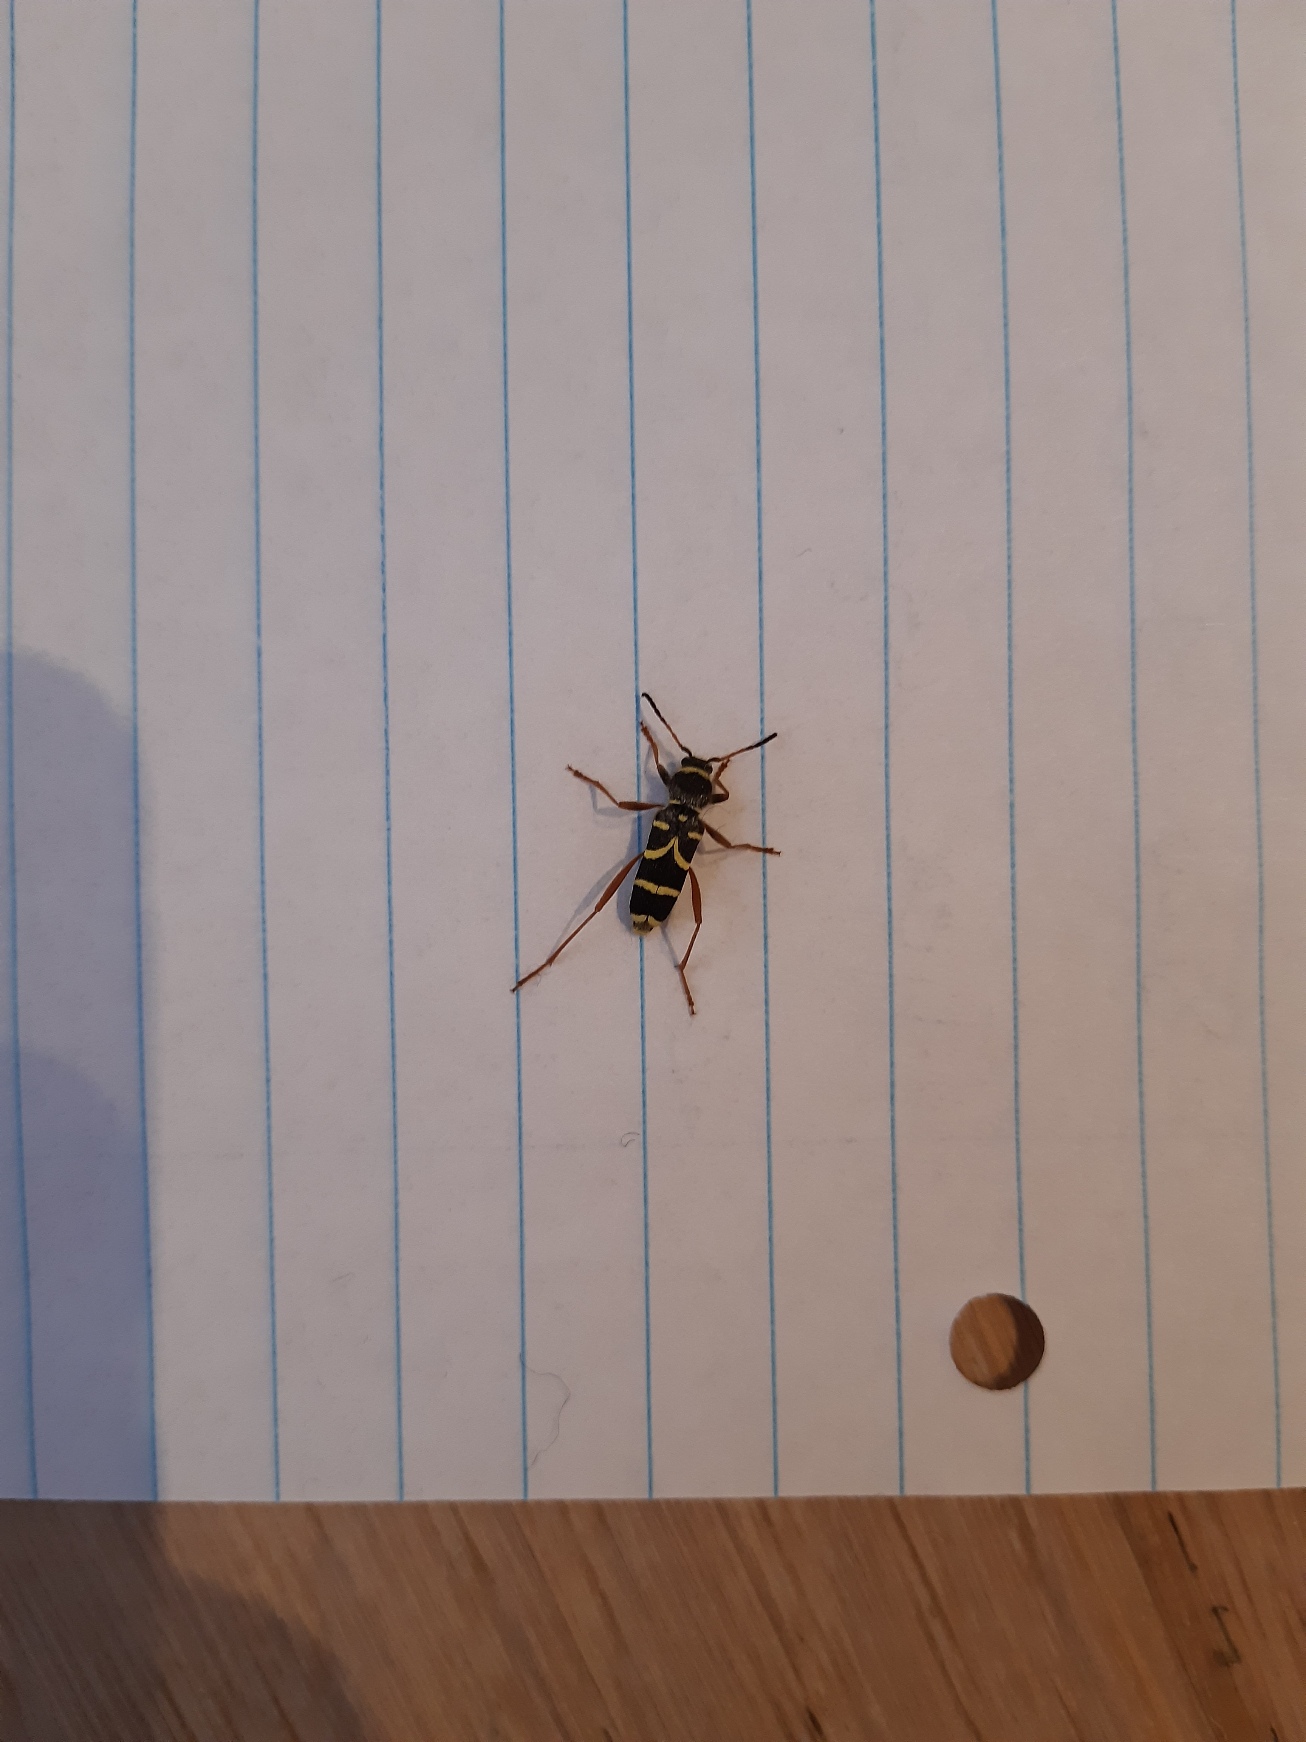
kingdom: Animalia
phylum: Arthropoda
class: Insecta
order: Coleoptera
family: Cerambycidae
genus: Clytus
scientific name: Clytus arietis
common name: Lille hvepsebuk
